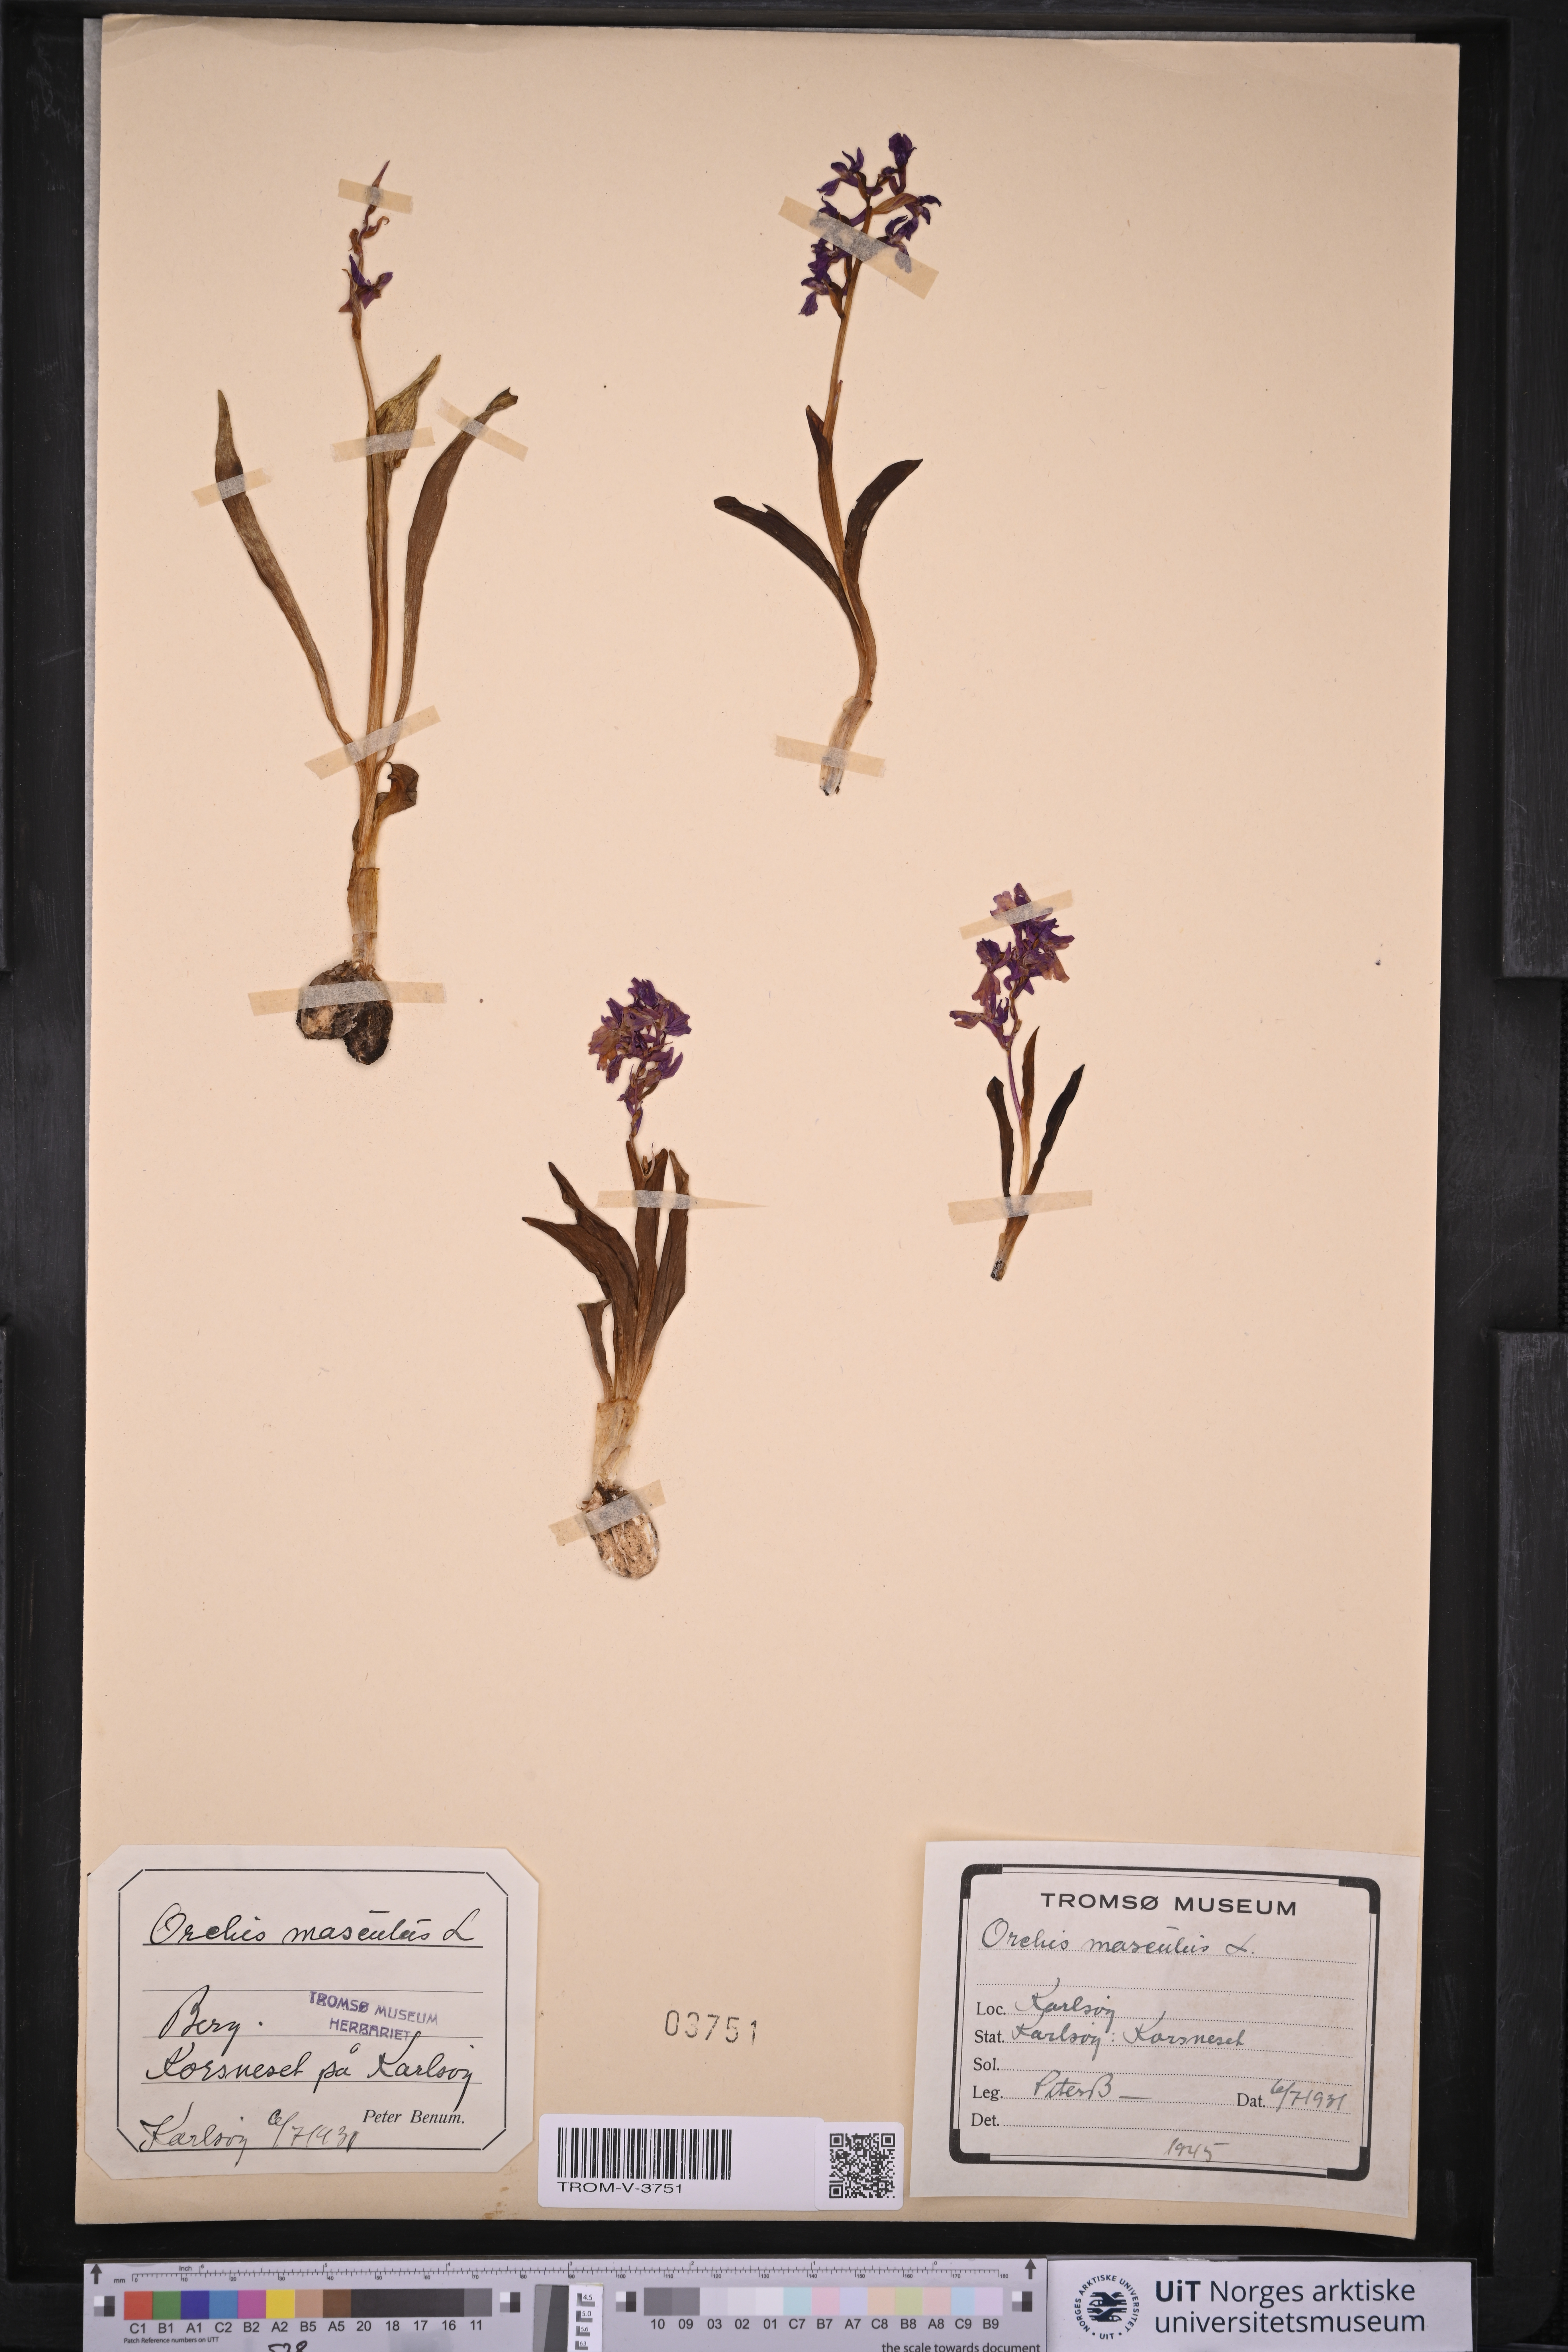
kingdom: Plantae
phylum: Tracheophyta
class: Liliopsida
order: Asparagales
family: Orchidaceae
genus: Orchis
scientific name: Orchis mascula
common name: Early-purple orchid
